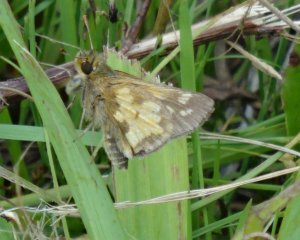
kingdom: Animalia
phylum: Arthropoda
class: Insecta
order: Lepidoptera
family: Hesperiidae
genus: Polites
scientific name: Polites coras
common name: Peck's Skipper
